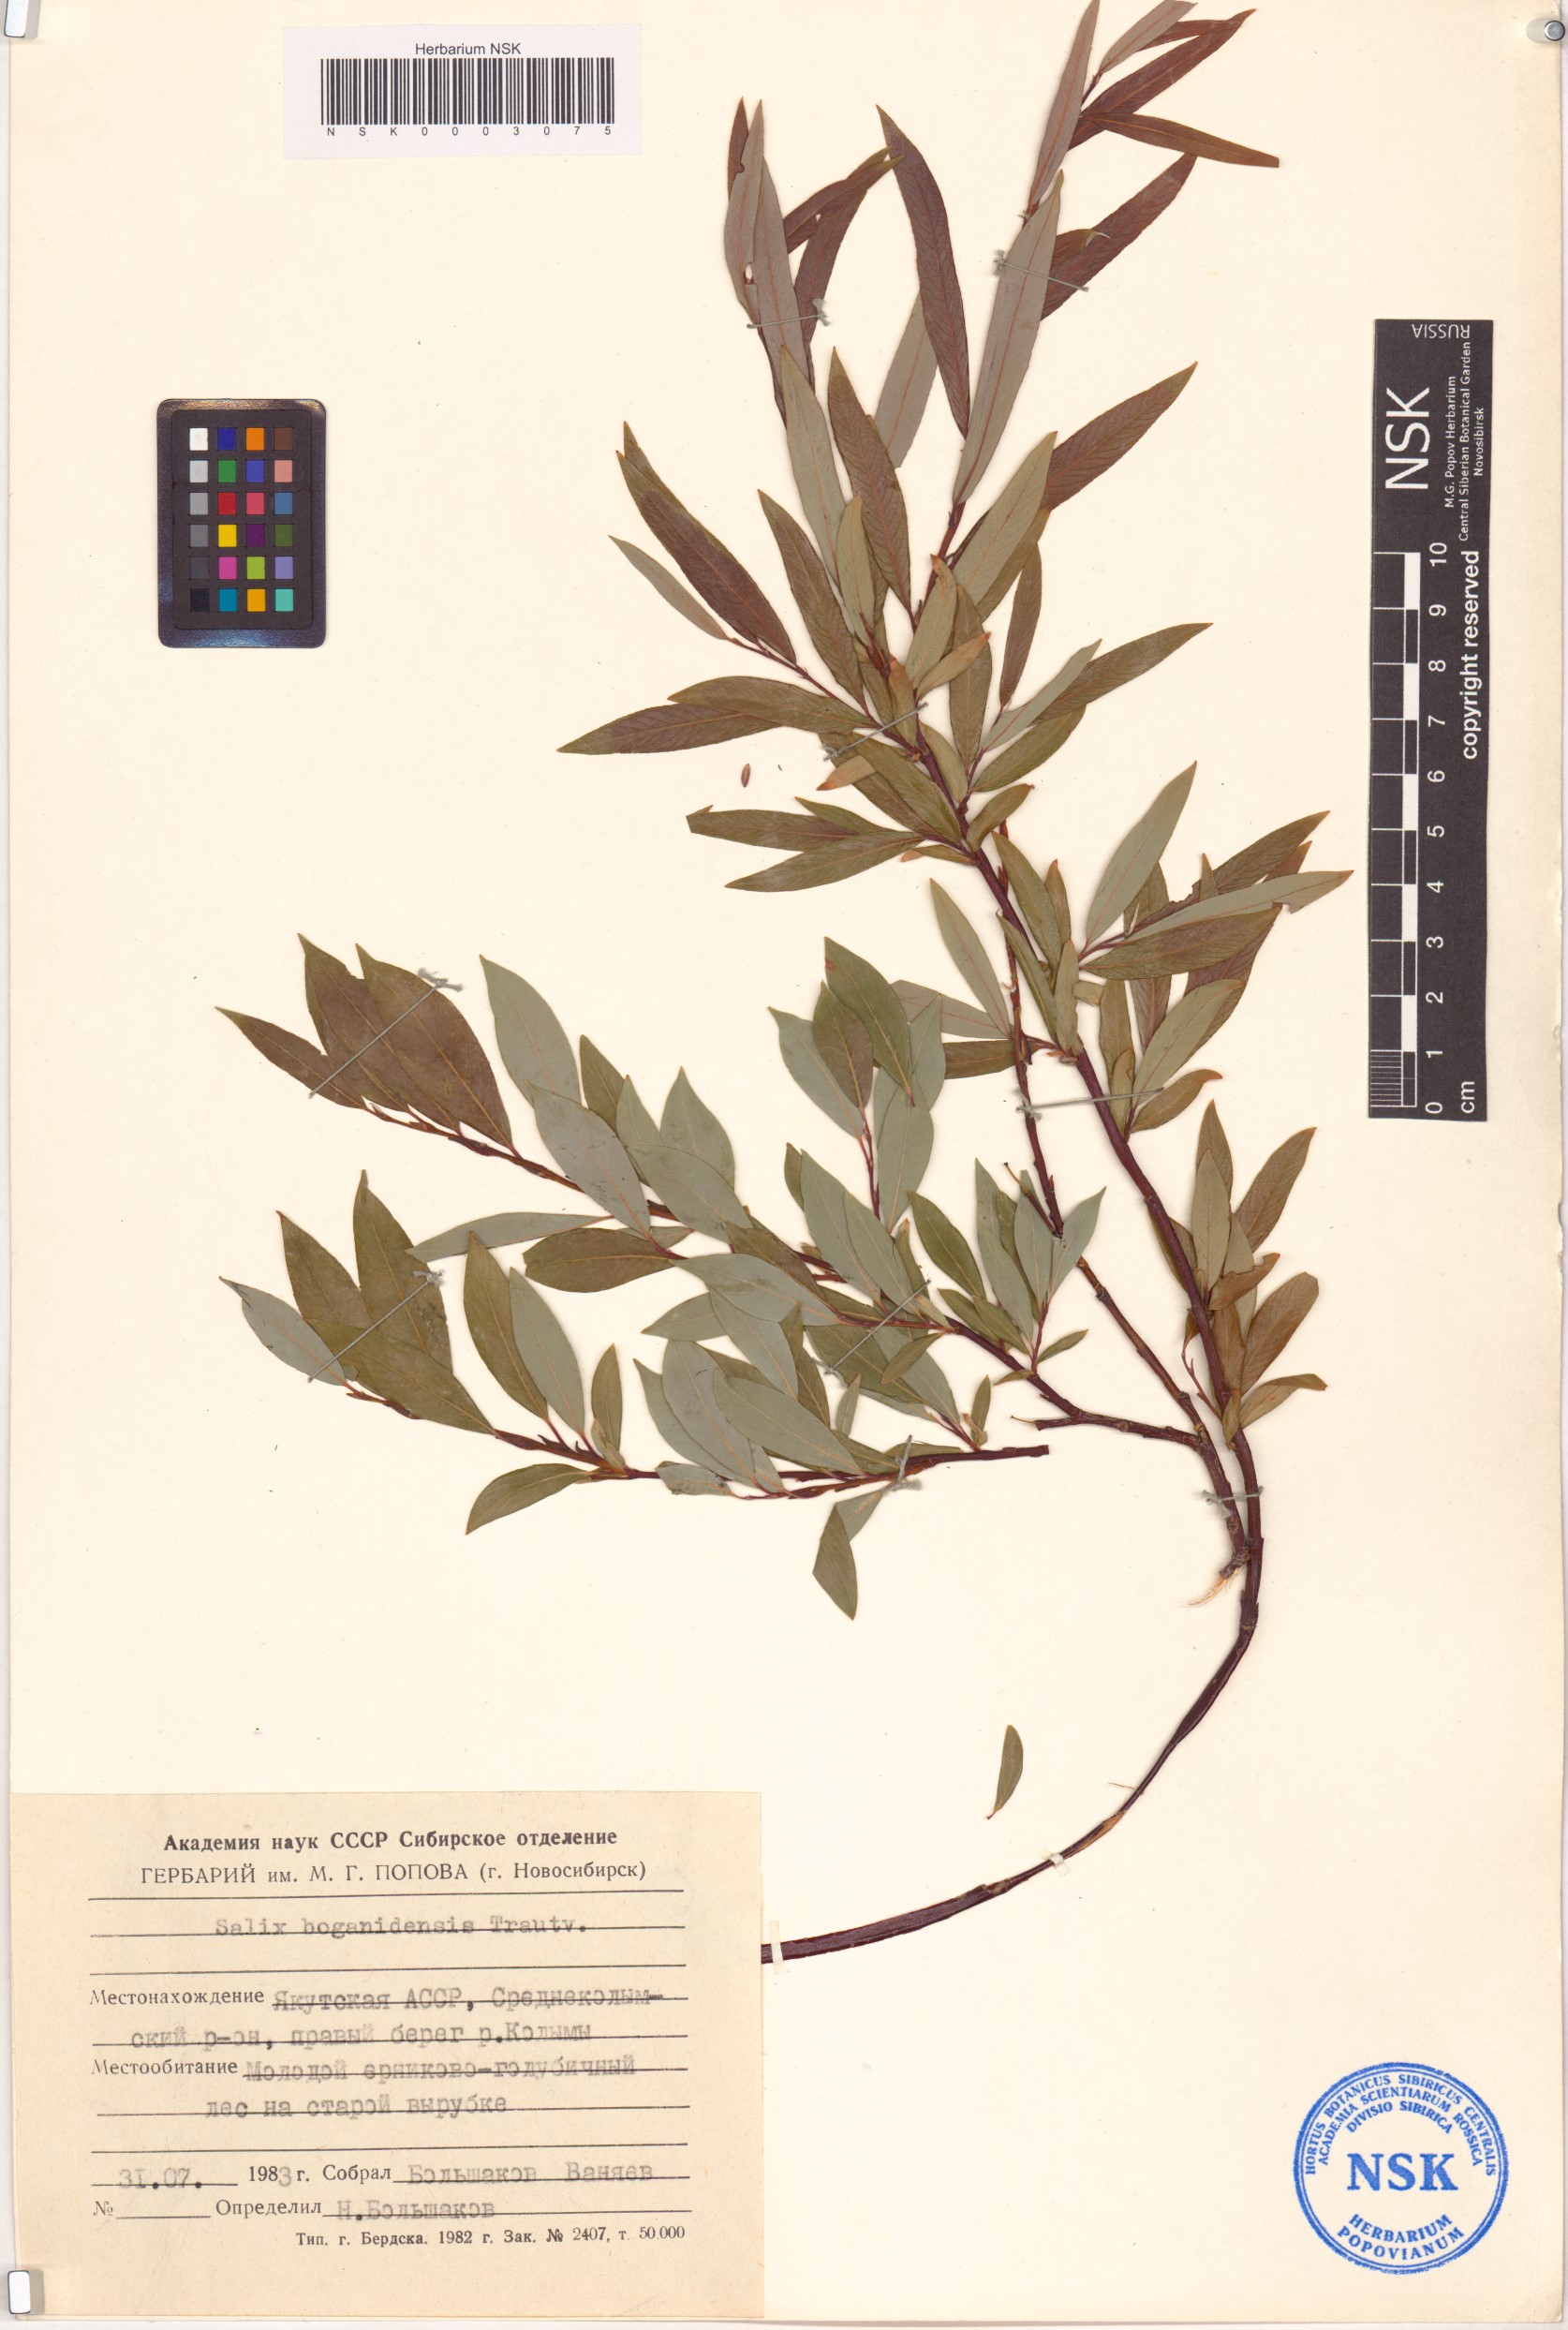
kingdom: Plantae
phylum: Tracheophyta
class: Magnoliopsida
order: Malpighiales
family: Salicaceae
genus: Salix
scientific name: Salix boganidensis
